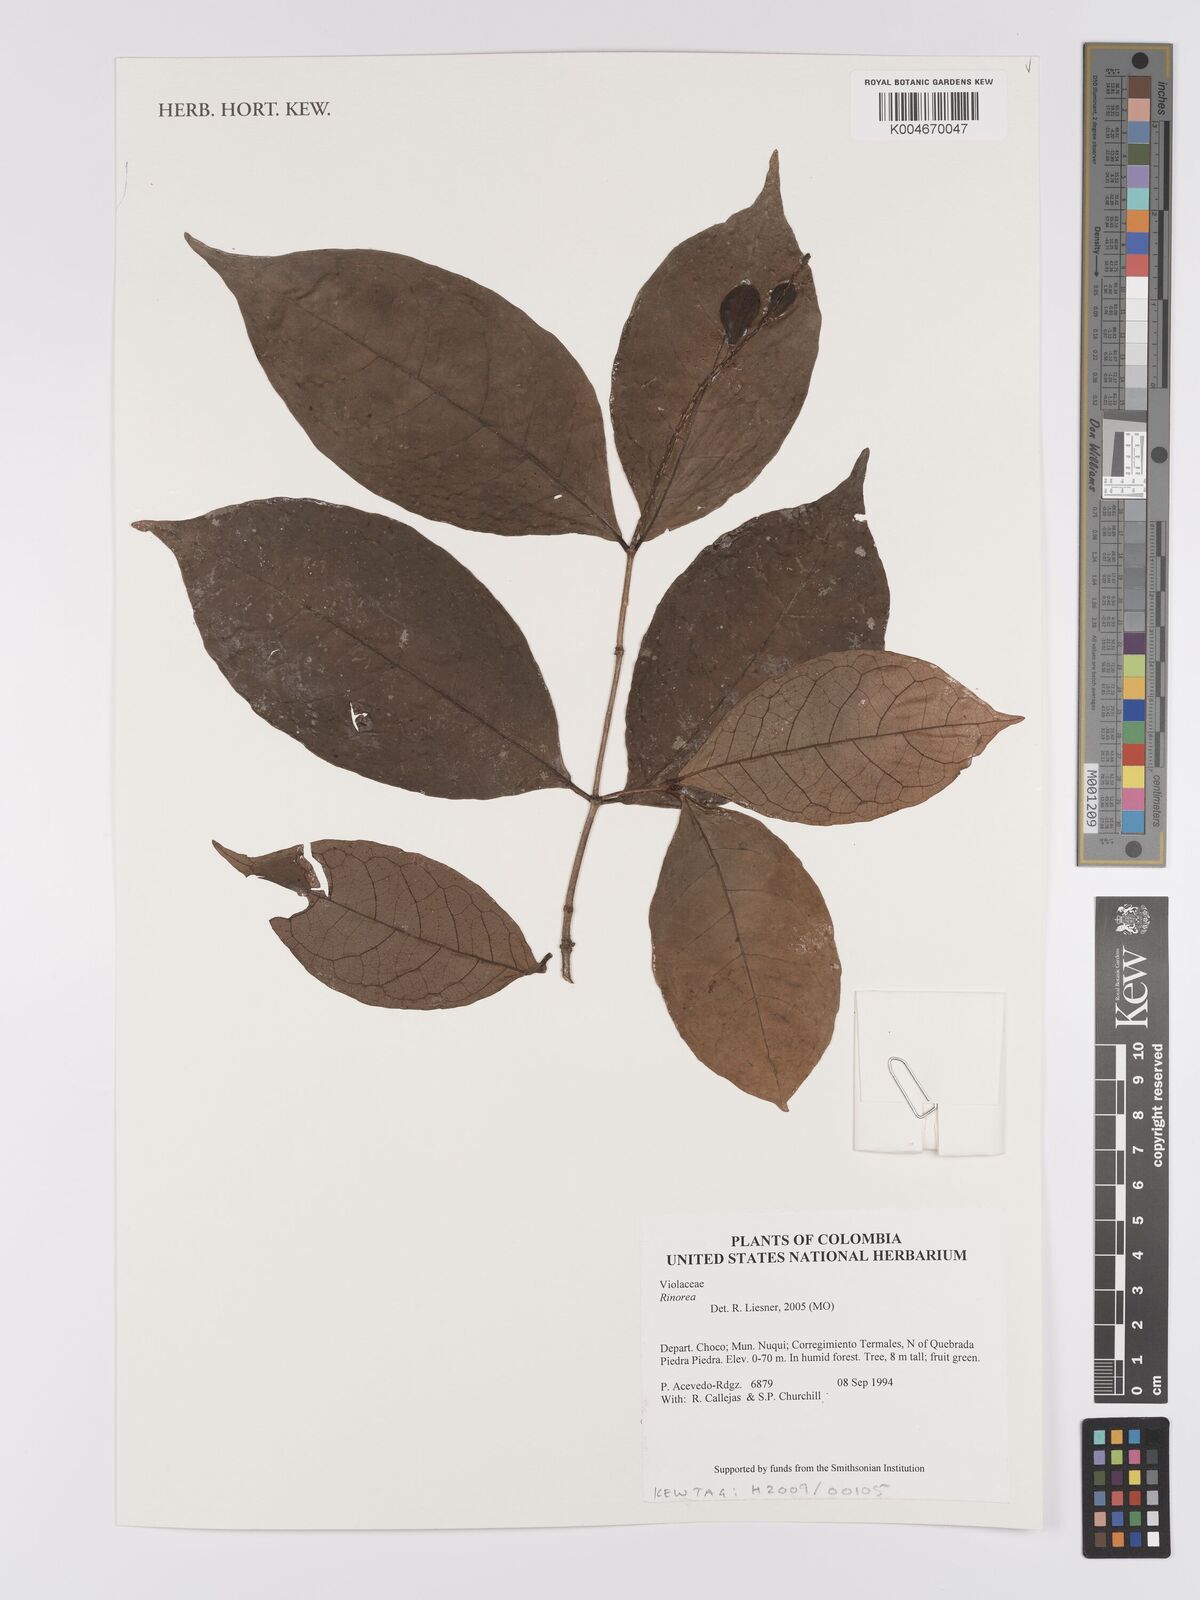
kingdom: Plantae
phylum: Tracheophyta
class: Magnoliopsida
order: Malpighiales
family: Violaceae
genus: Rinorea
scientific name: Rinorea
